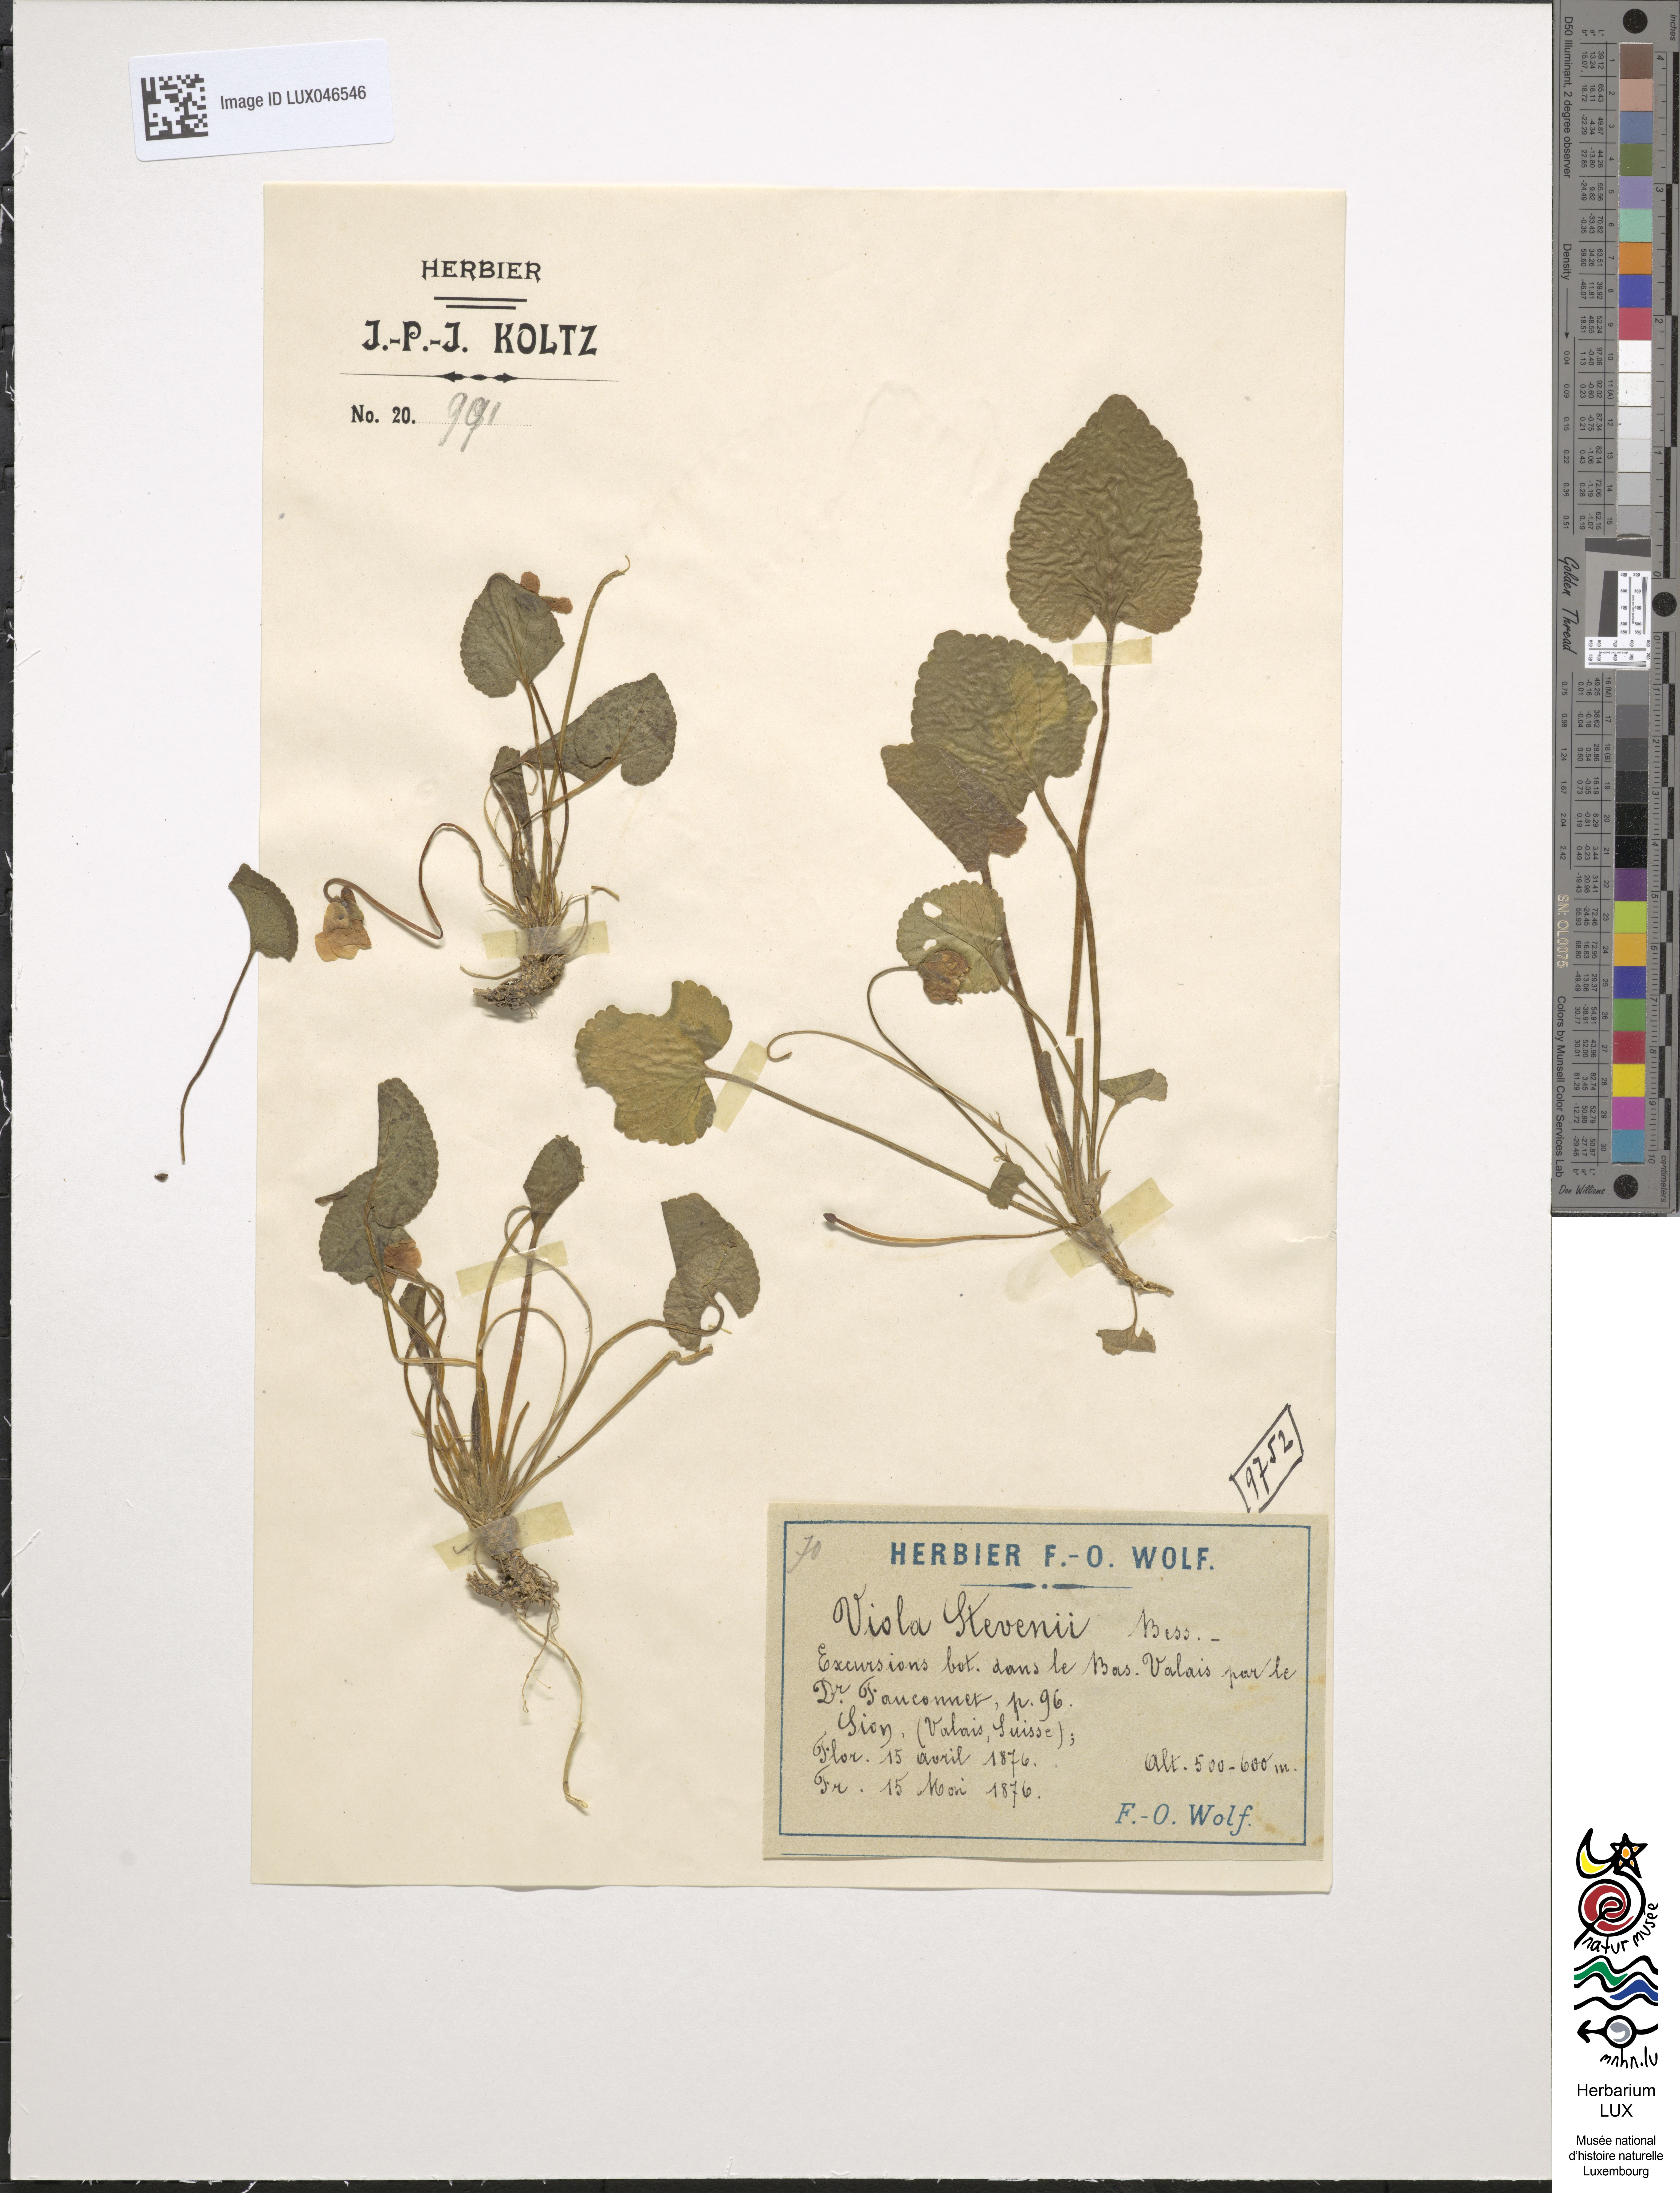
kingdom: Plantae
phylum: Tracheophyta
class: Magnoliopsida
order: Malpighiales
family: Violaceae
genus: Viola
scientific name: Viola odorata
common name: Sweet violet
